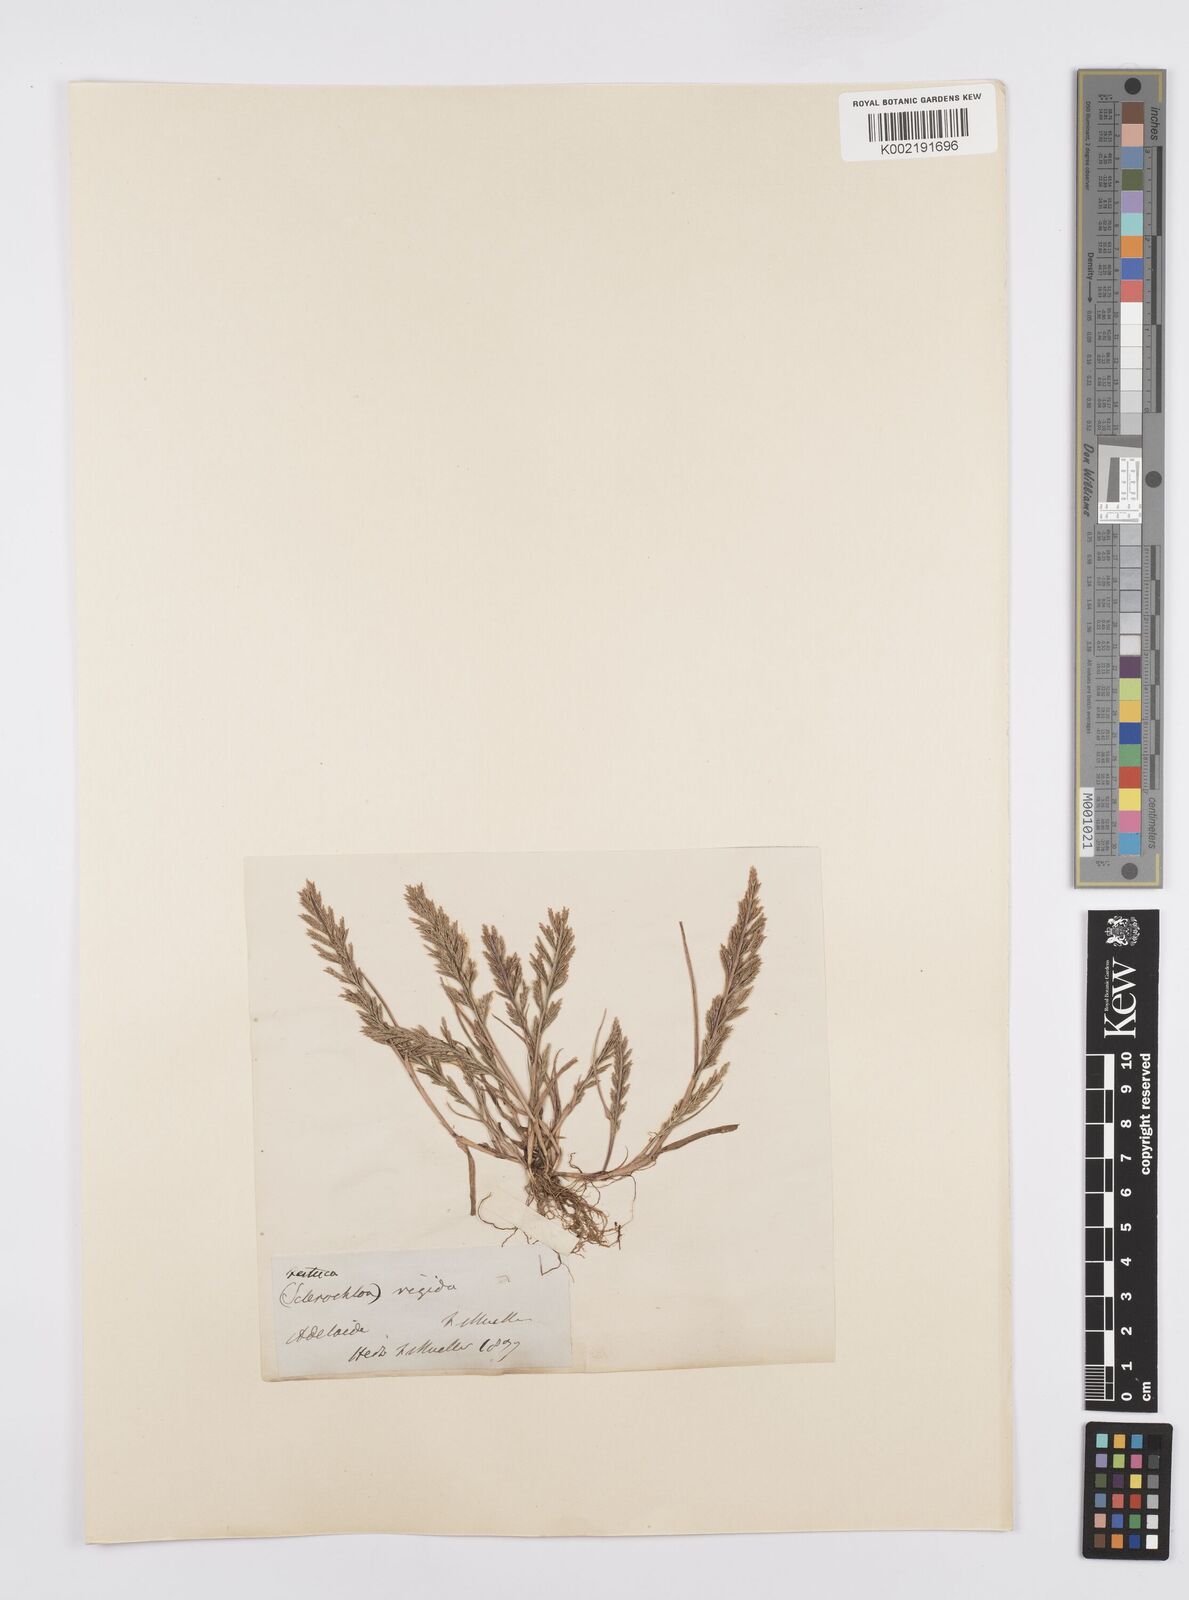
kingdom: Plantae
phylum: Tracheophyta
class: Liliopsida
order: Poales
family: Poaceae
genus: Catapodium
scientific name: Catapodium rigidum
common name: Fern-grass
